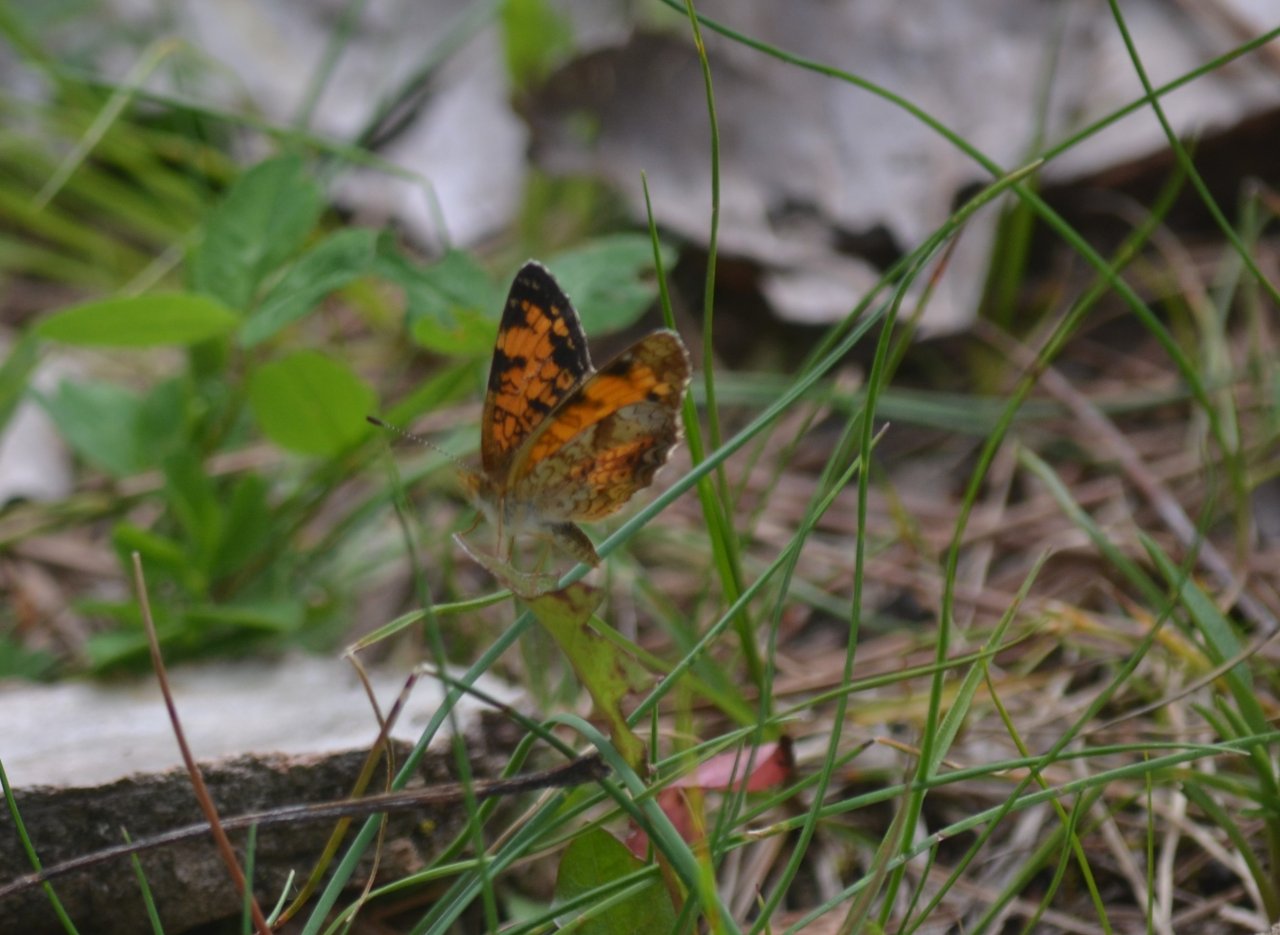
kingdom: Animalia
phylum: Arthropoda
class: Insecta
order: Lepidoptera
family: Nymphalidae
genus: Phyciodes
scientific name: Phyciodes tharos
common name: Pearl Crescent
